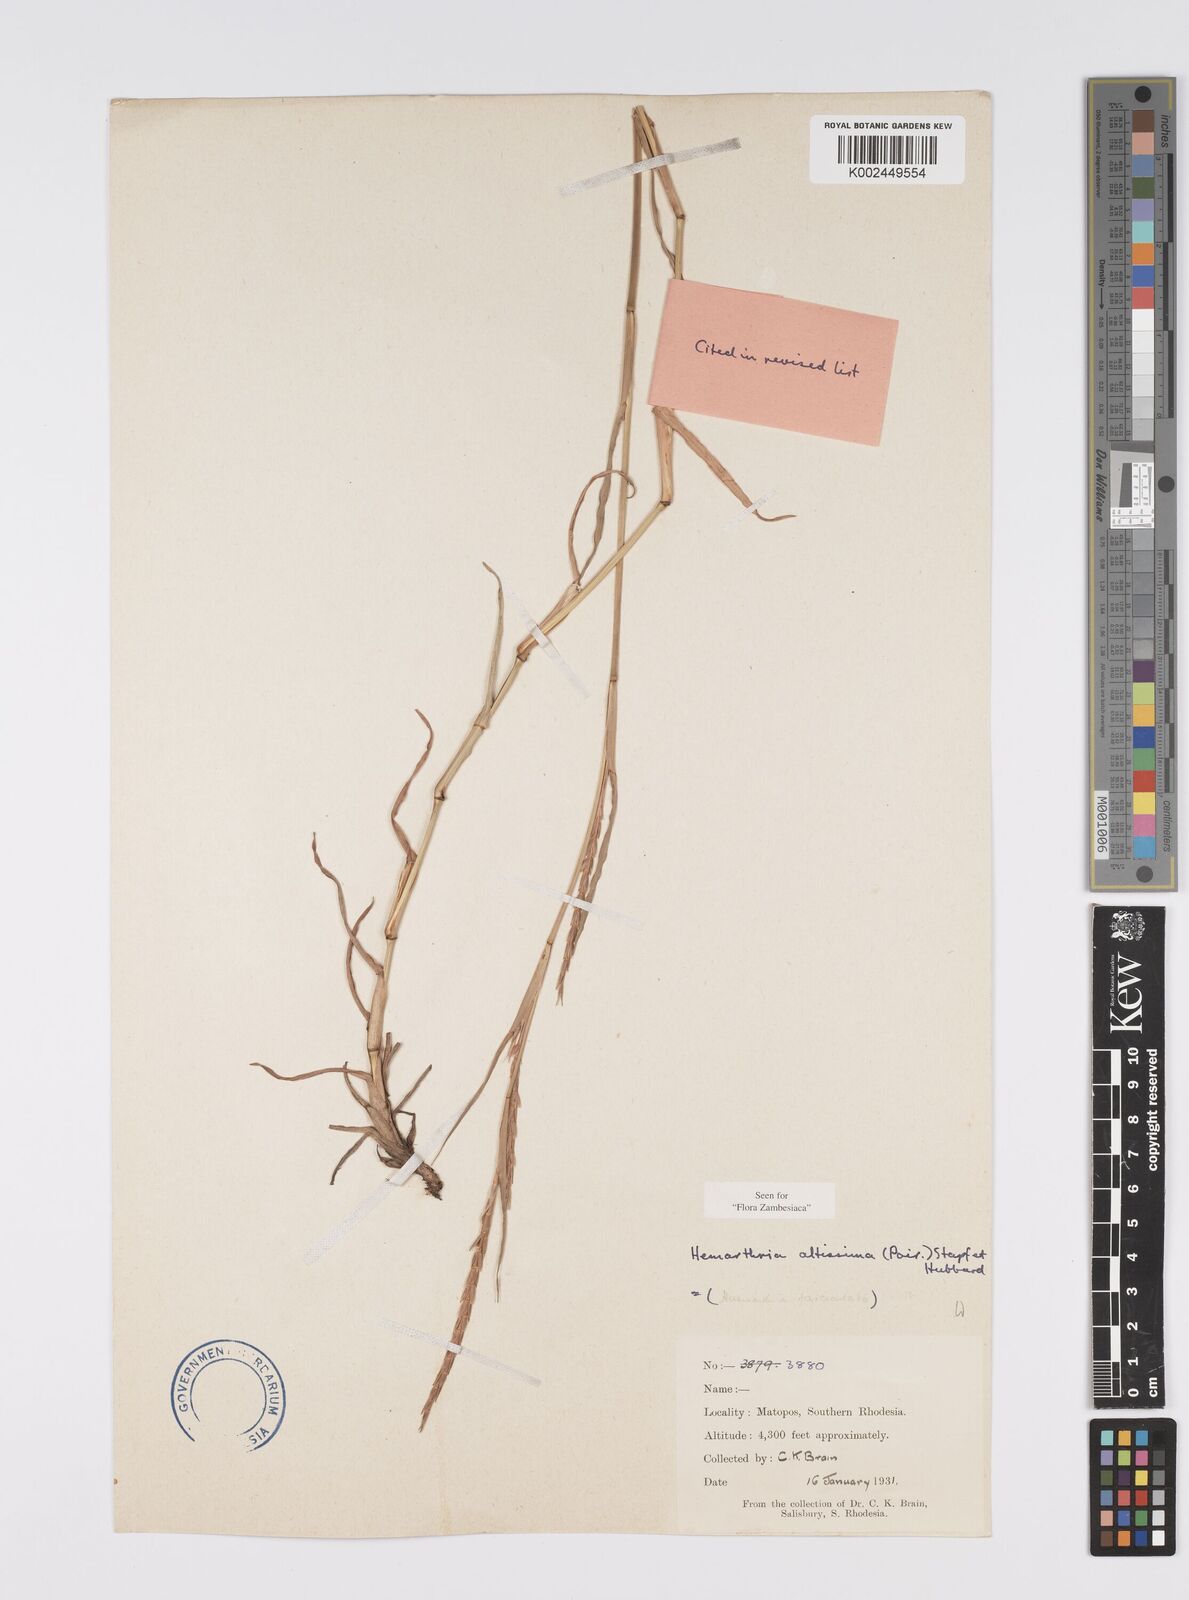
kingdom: Plantae
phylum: Tracheophyta
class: Liliopsida
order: Poales
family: Poaceae
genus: Hemarthria
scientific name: Hemarthria altissima
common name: African jointgrass
